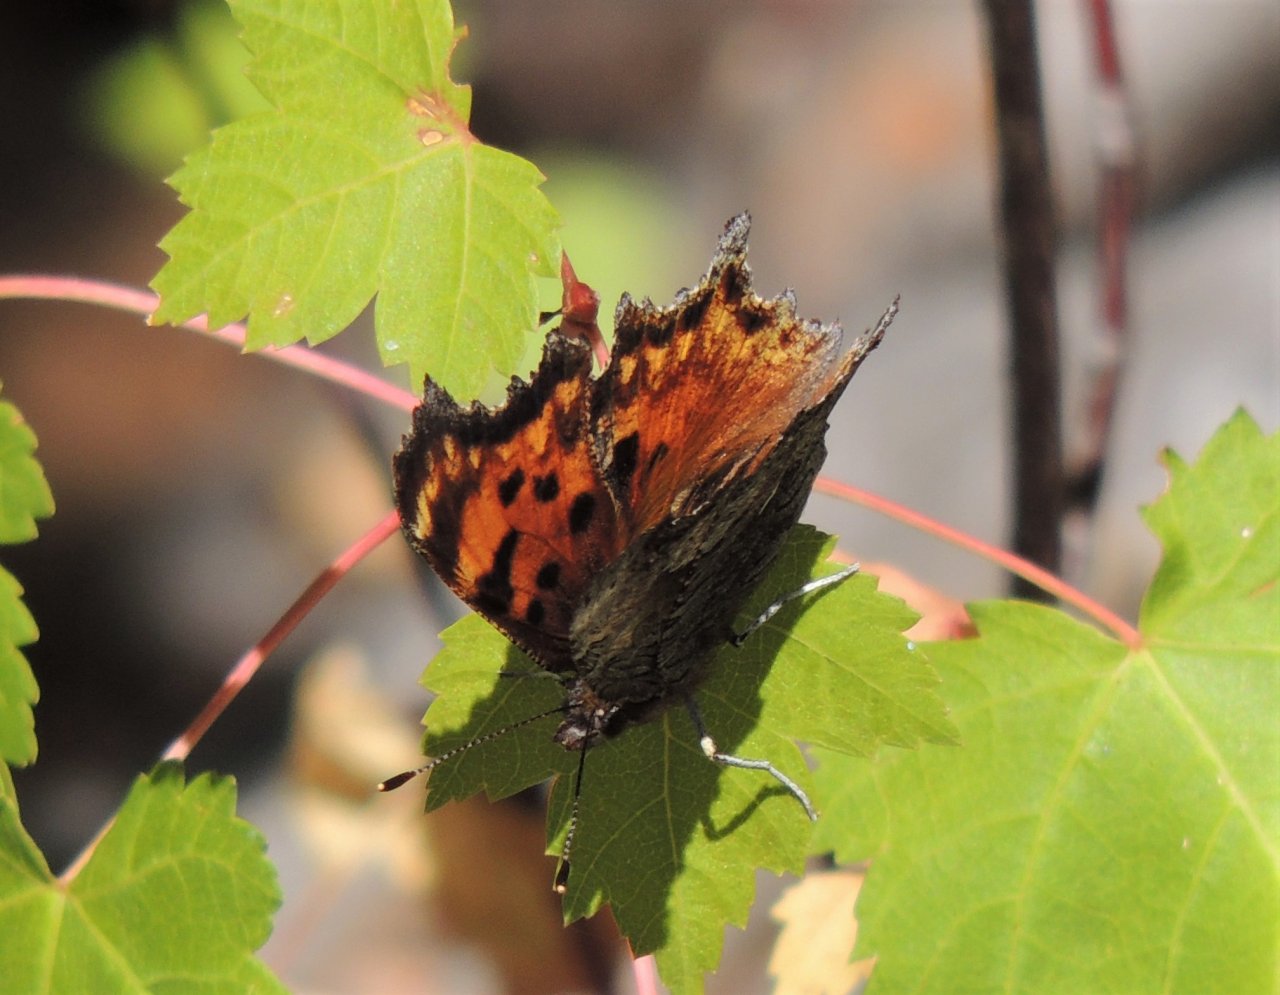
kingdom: Animalia
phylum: Arthropoda
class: Insecta
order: Lepidoptera
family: Nymphalidae
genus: Polygonia
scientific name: Polygonia gracilis
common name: Hoary Comma
